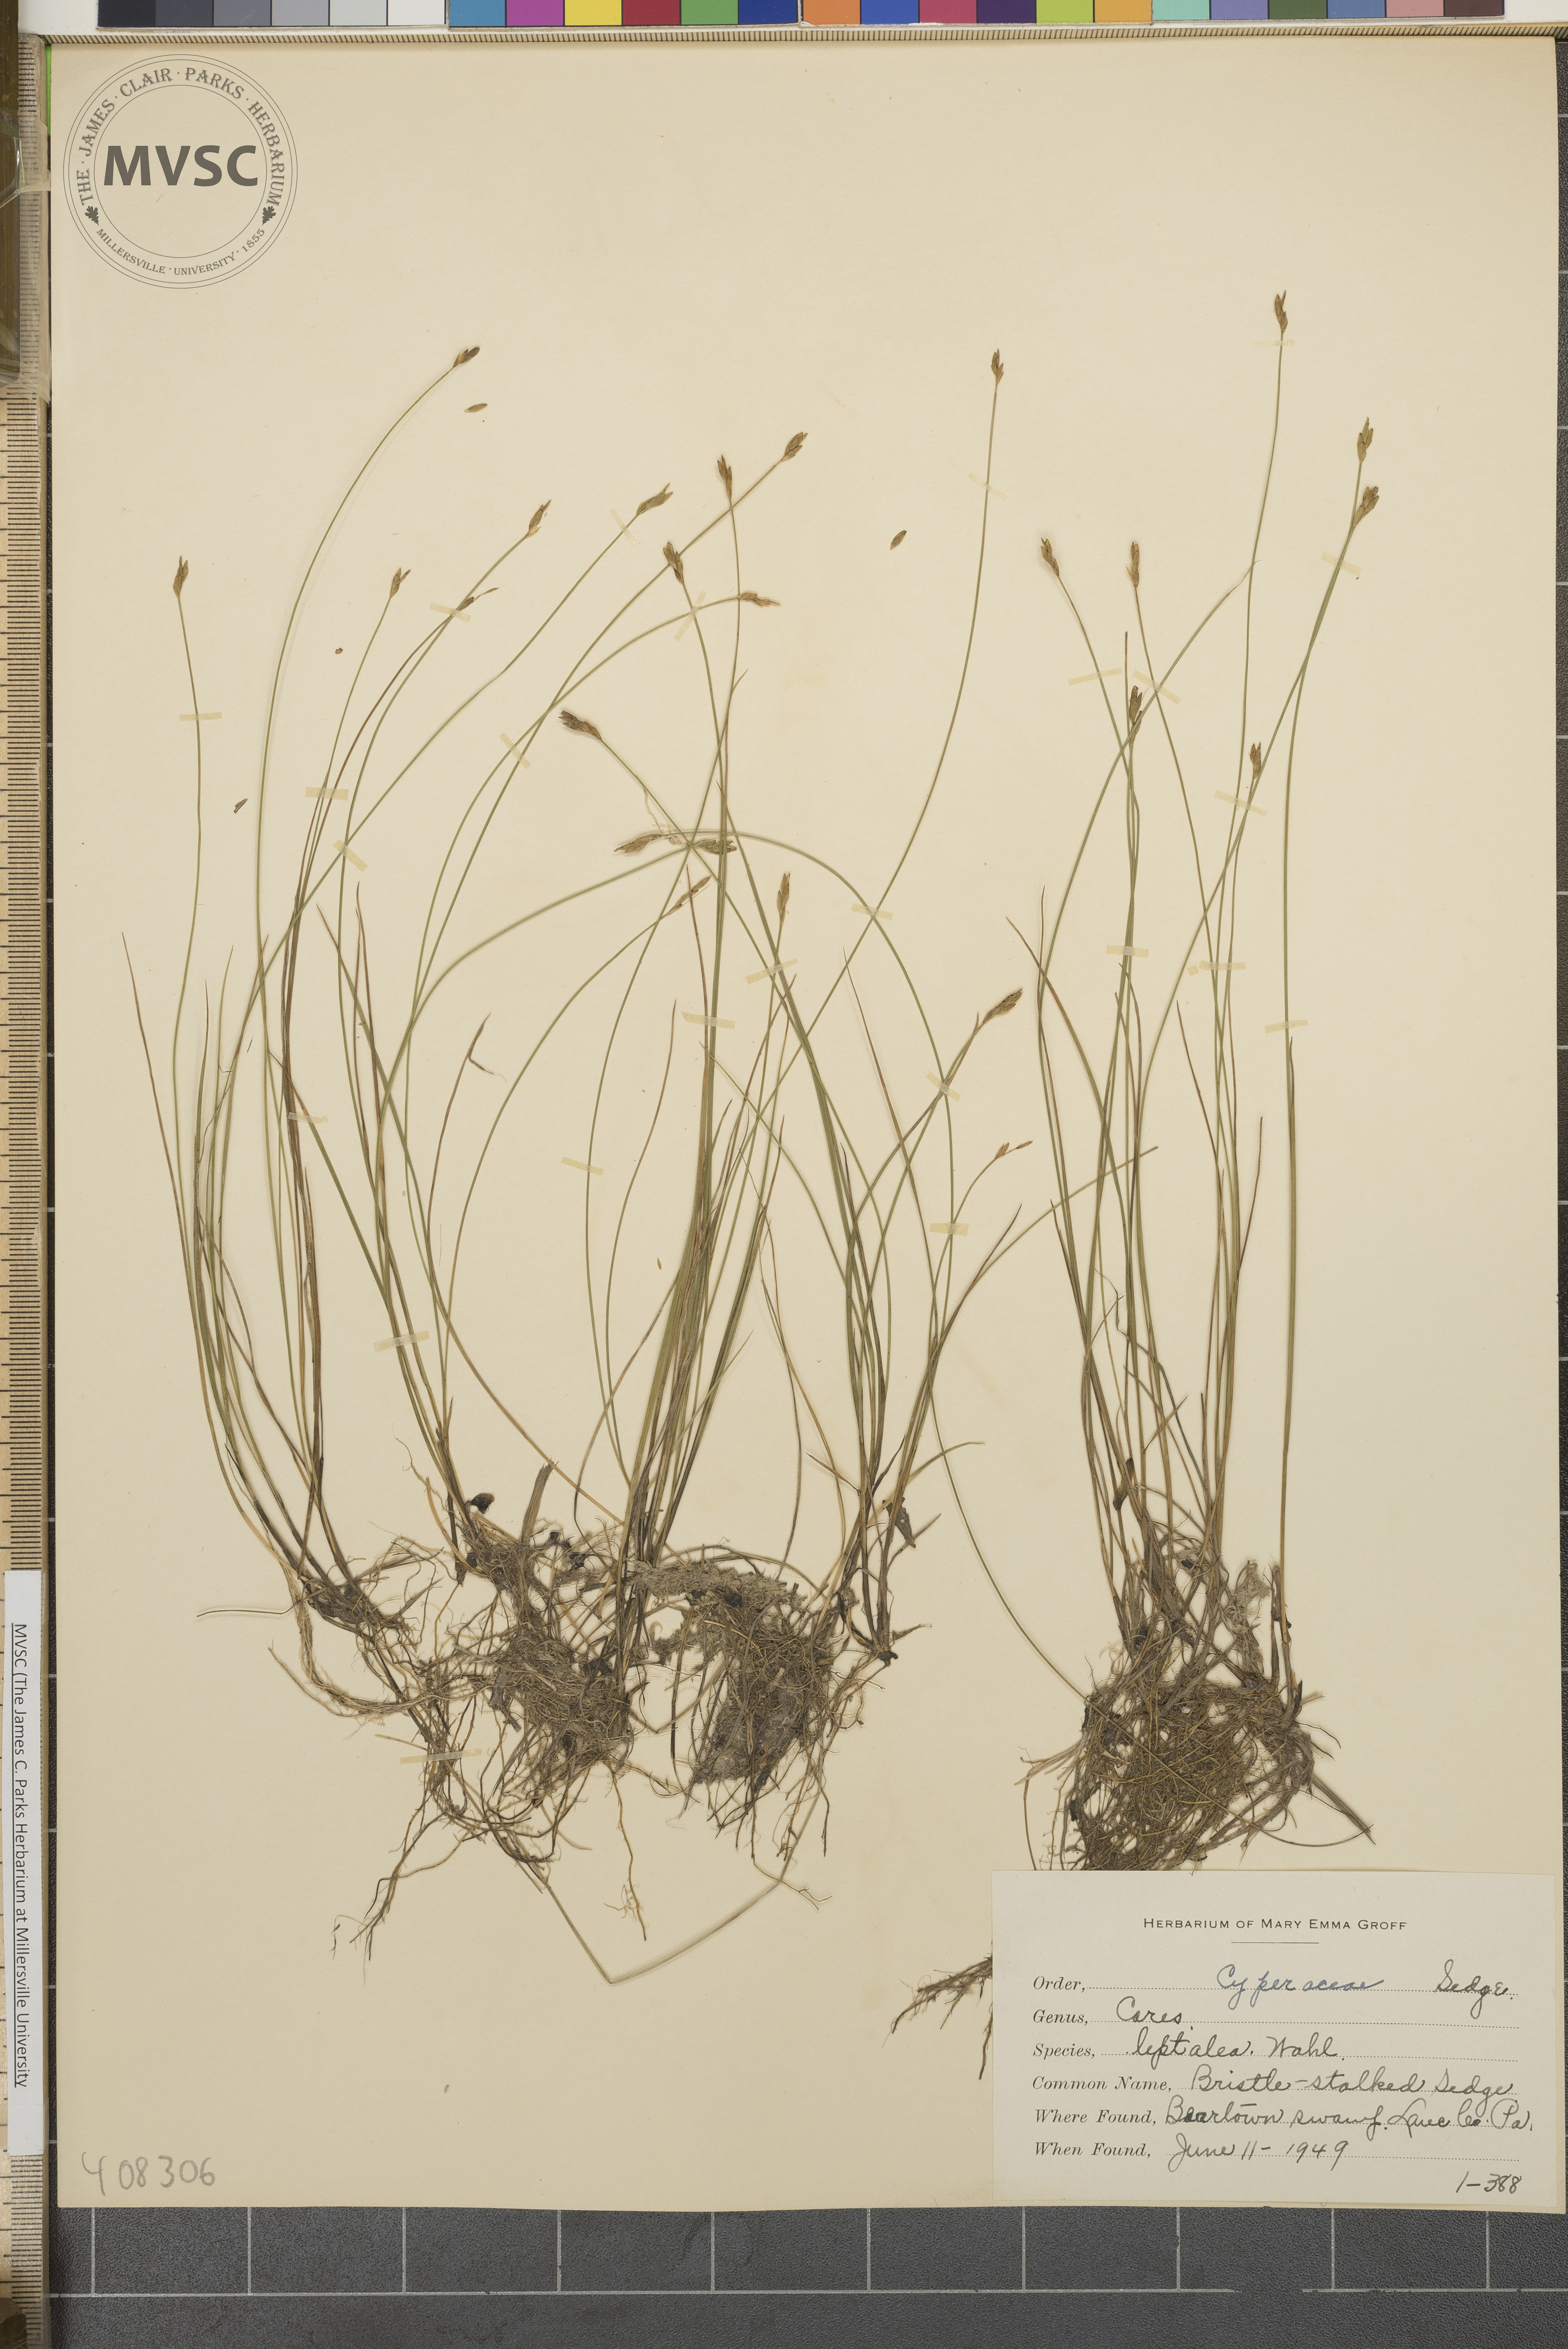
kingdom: Plantae
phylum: Tracheophyta
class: Liliopsida
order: Poales
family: Cyperaceae
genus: Carex
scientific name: Carex leptalea
